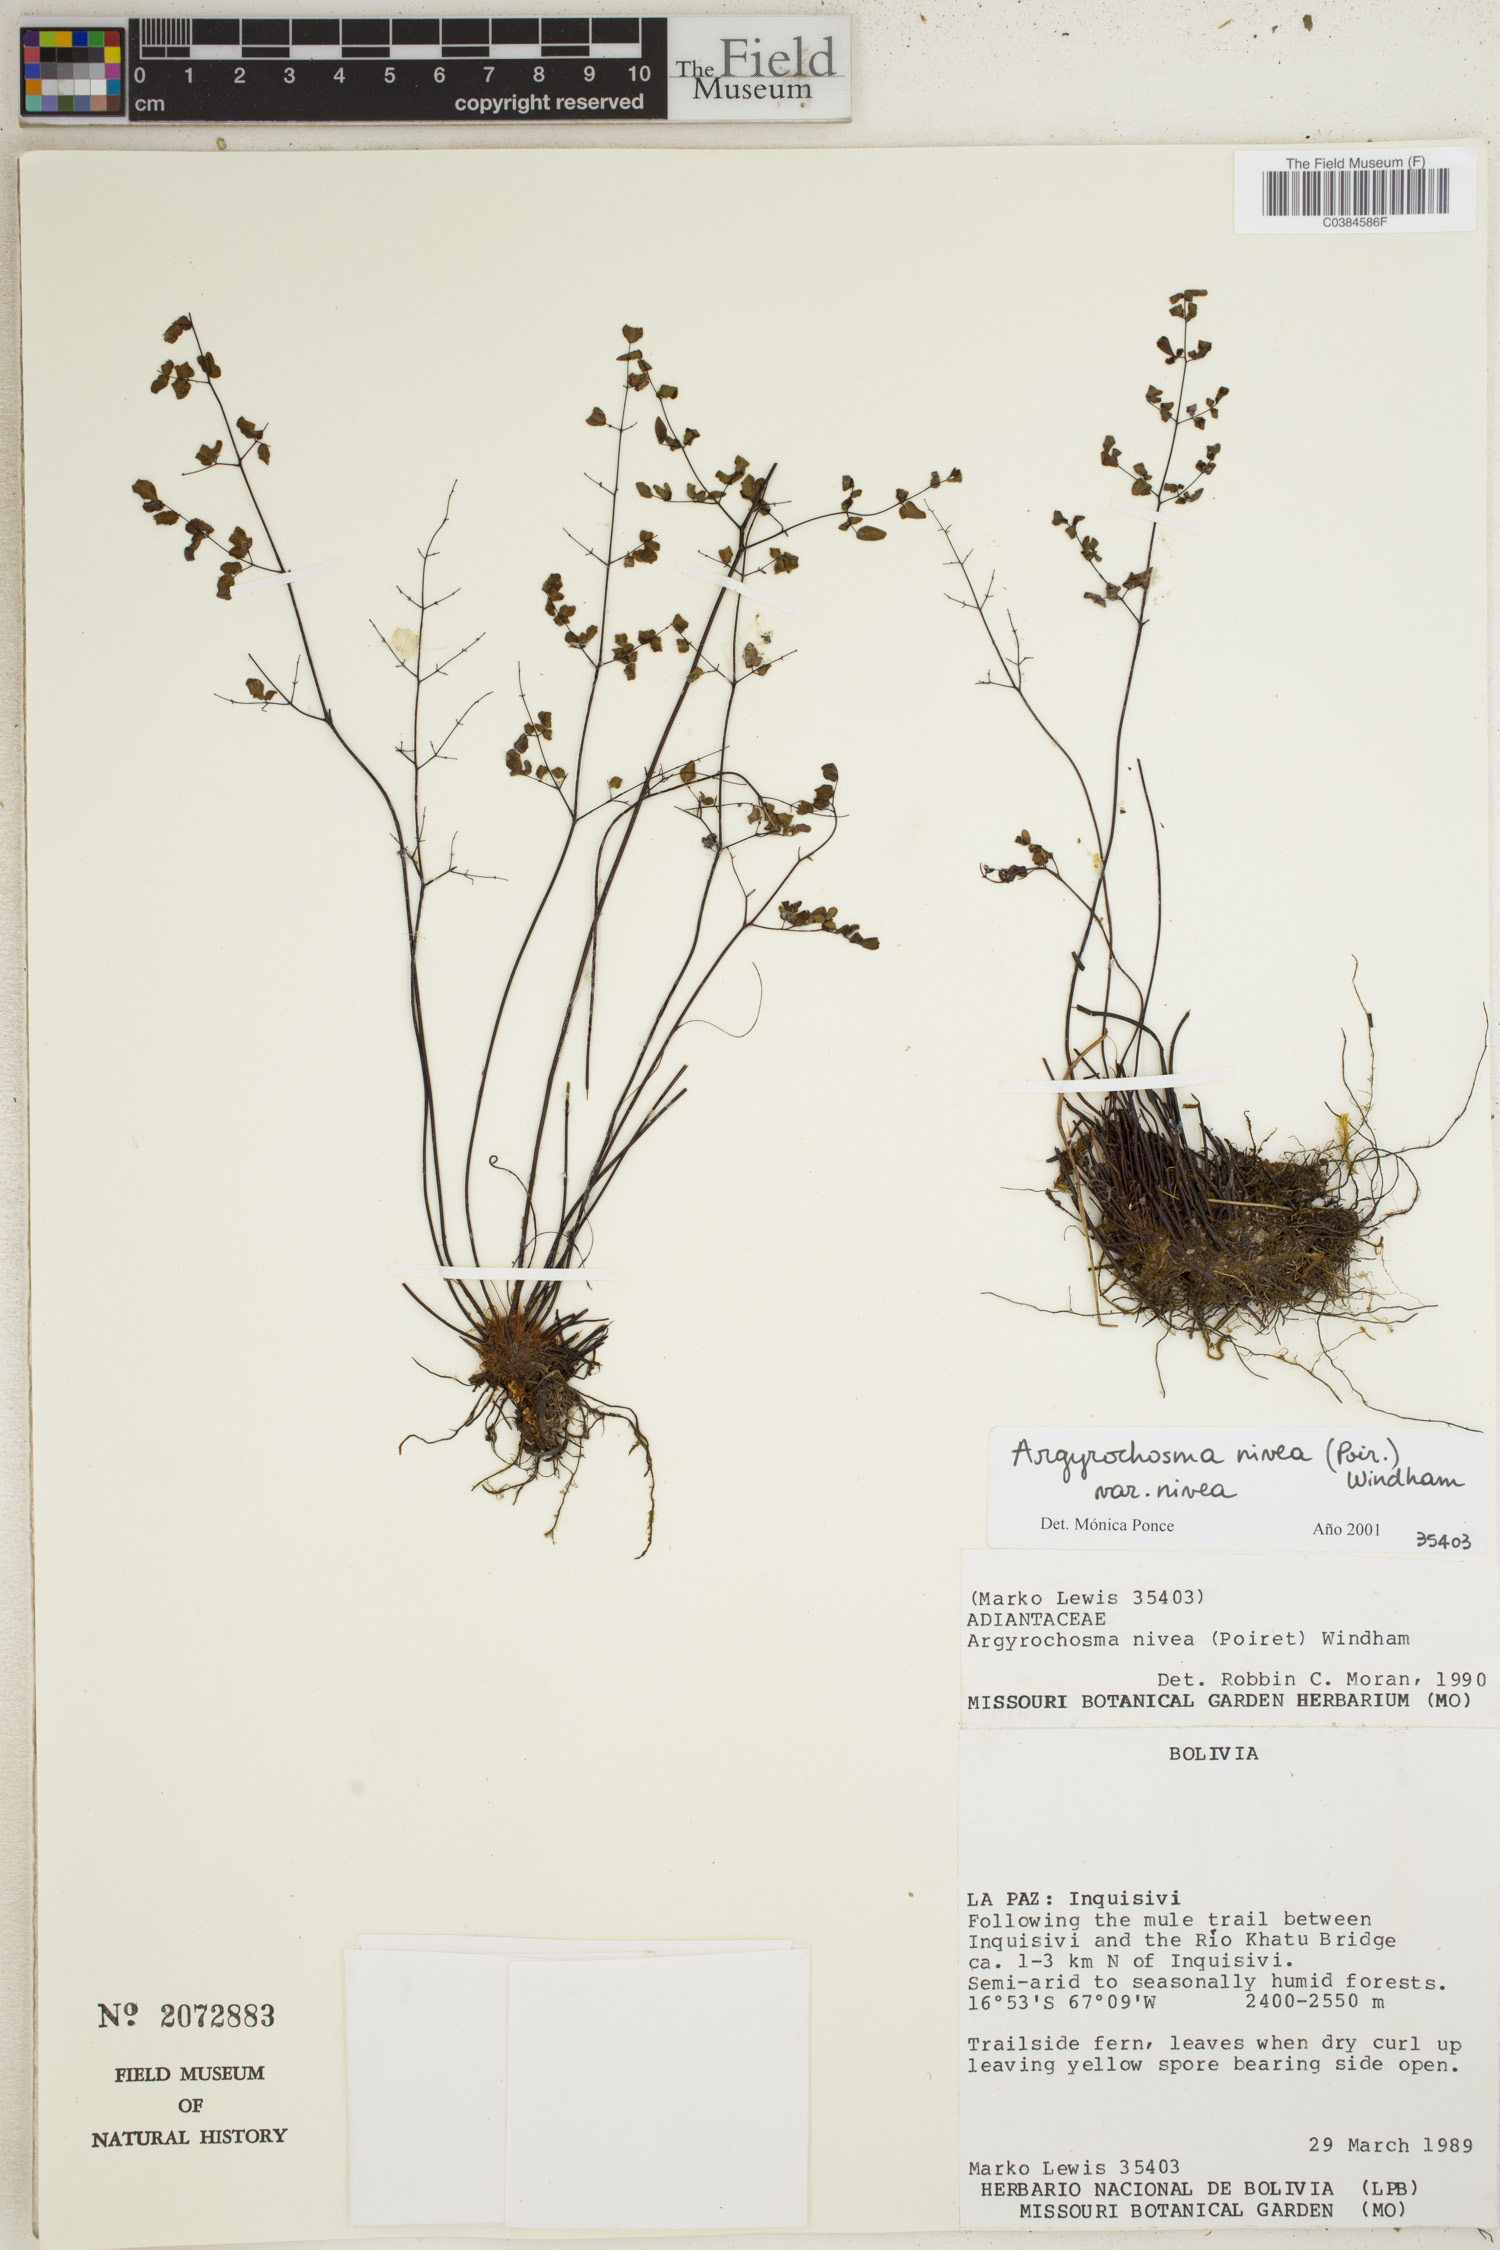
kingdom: Plantae
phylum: Tracheophyta
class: Polypodiopsida
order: Polypodiales
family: Pteridaceae
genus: Argyrochosma
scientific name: Argyrochosma nivea
